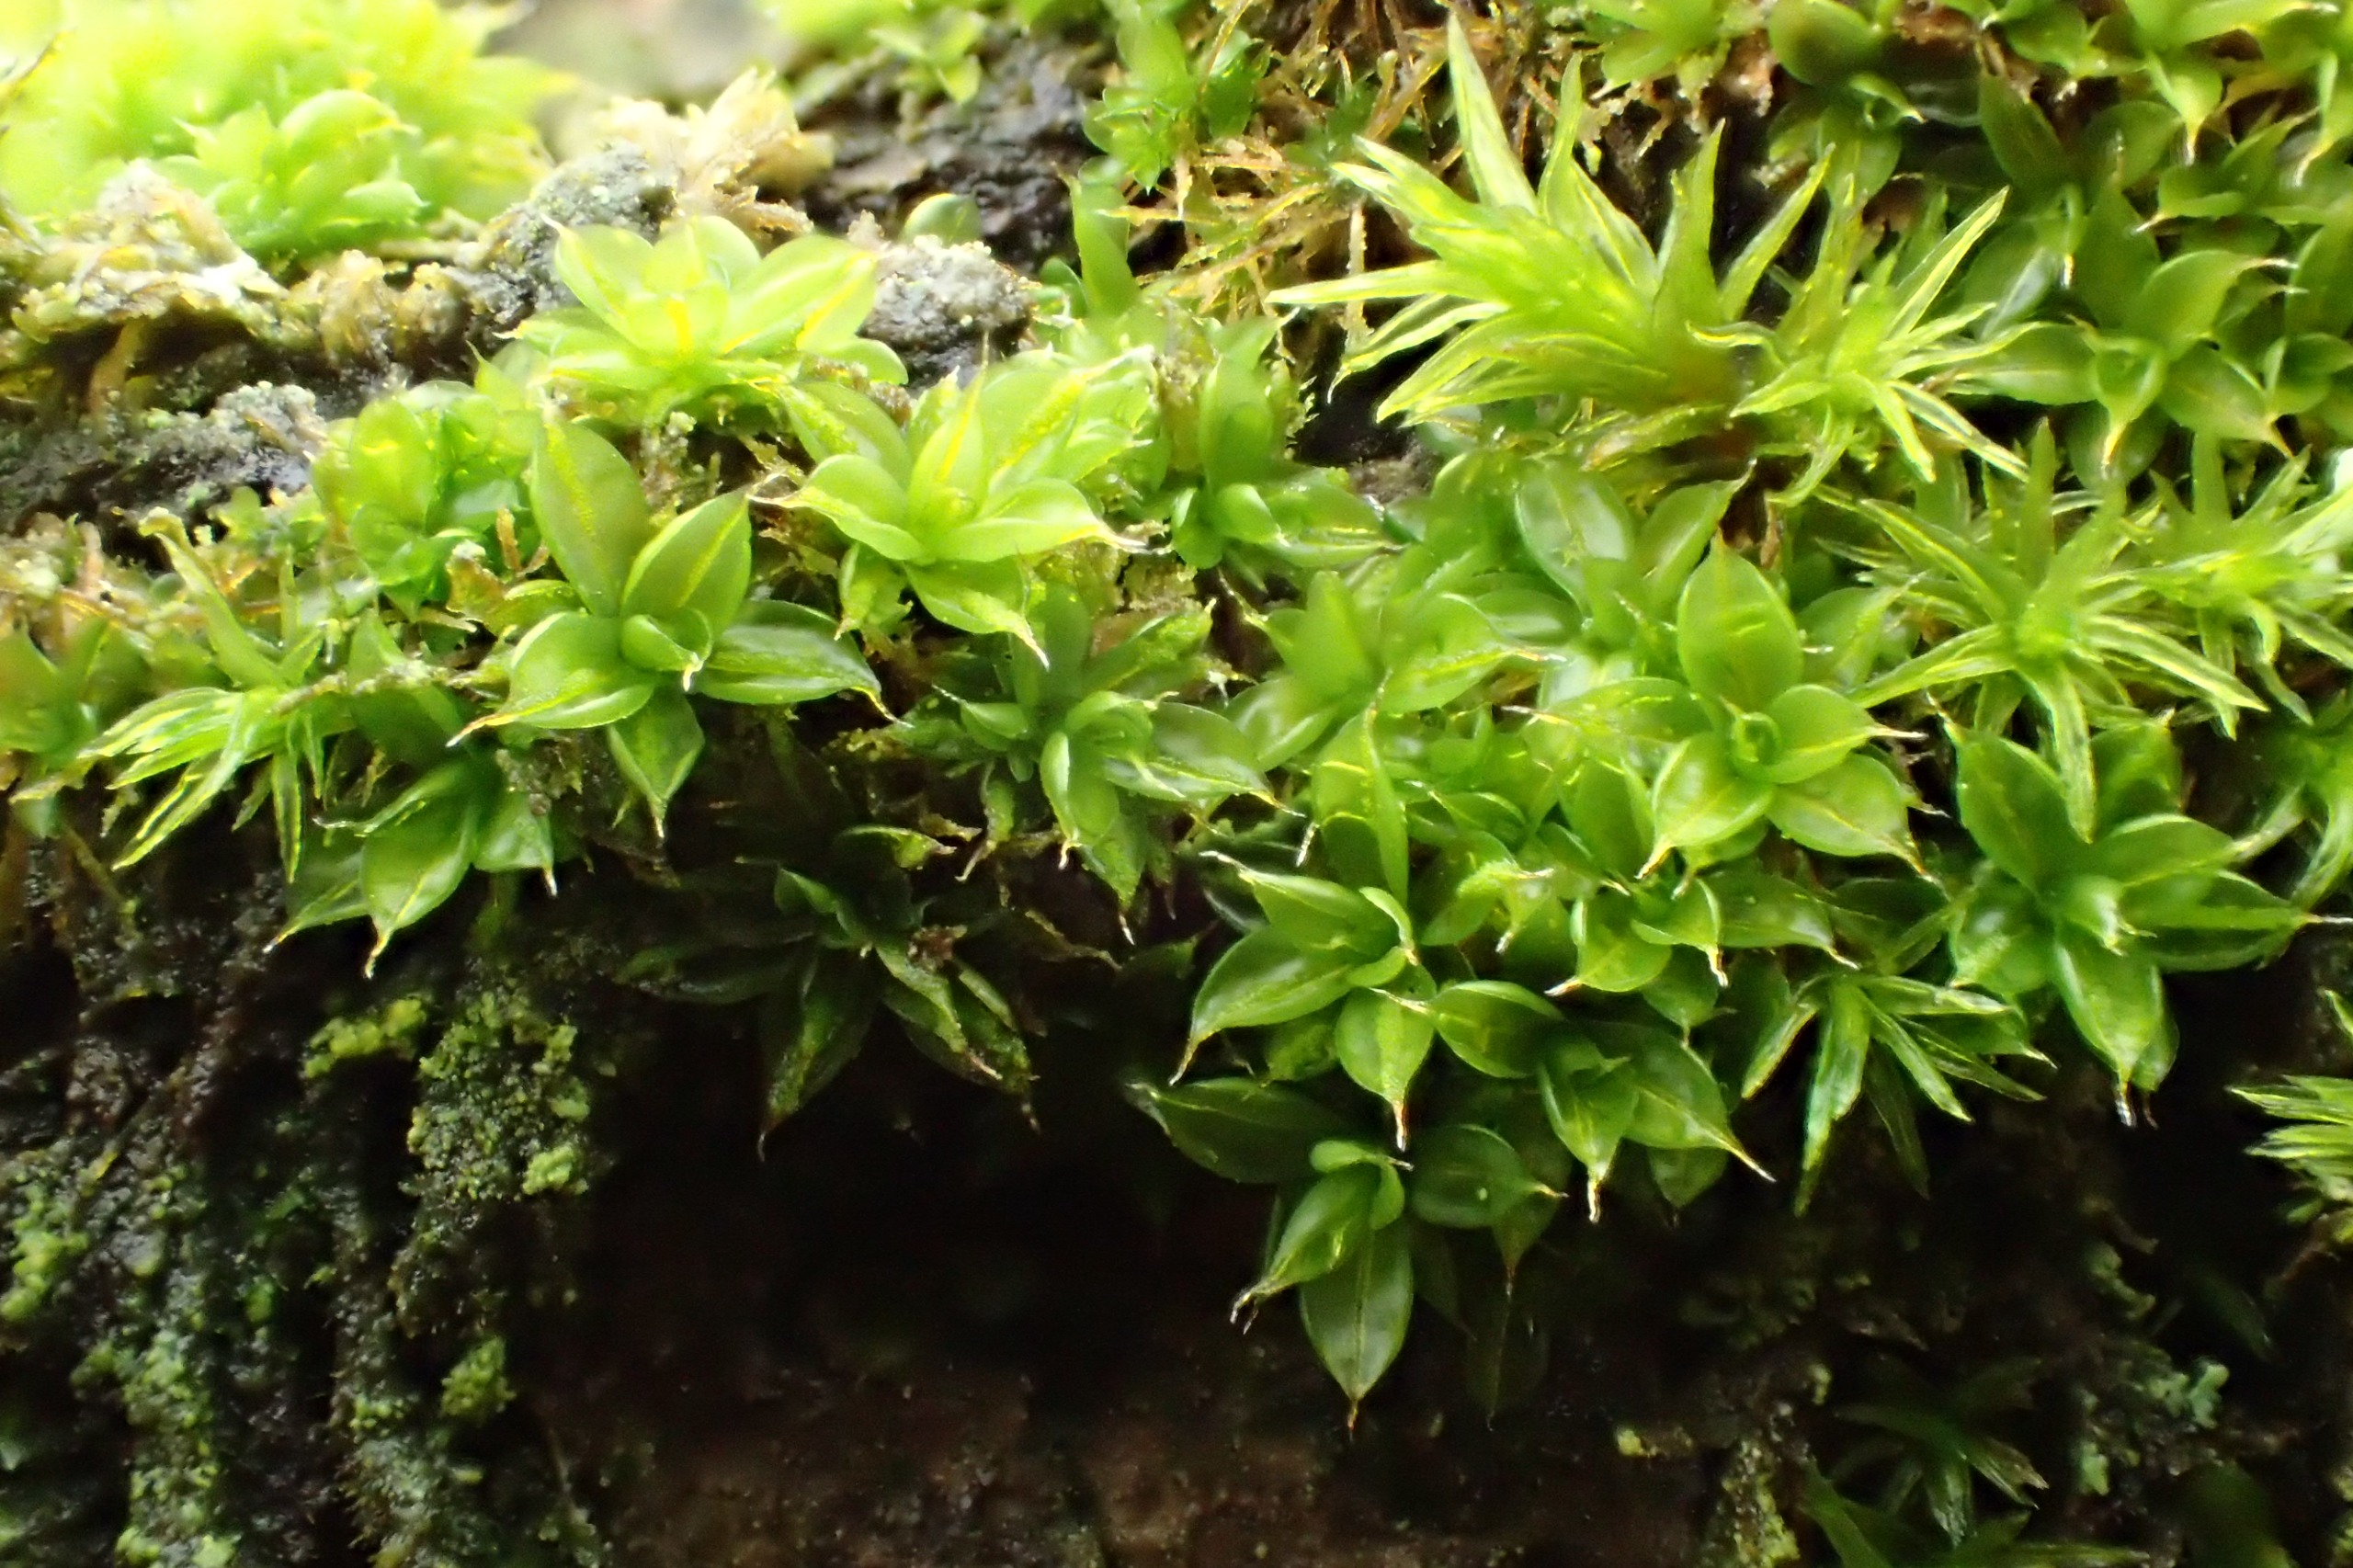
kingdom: Plantae
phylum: Bryophyta
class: Bryopsida
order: Pottiales
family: Pottiaceae
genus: Syntrichia
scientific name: Syntrichia papillosa
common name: Bark-hårstjerne
